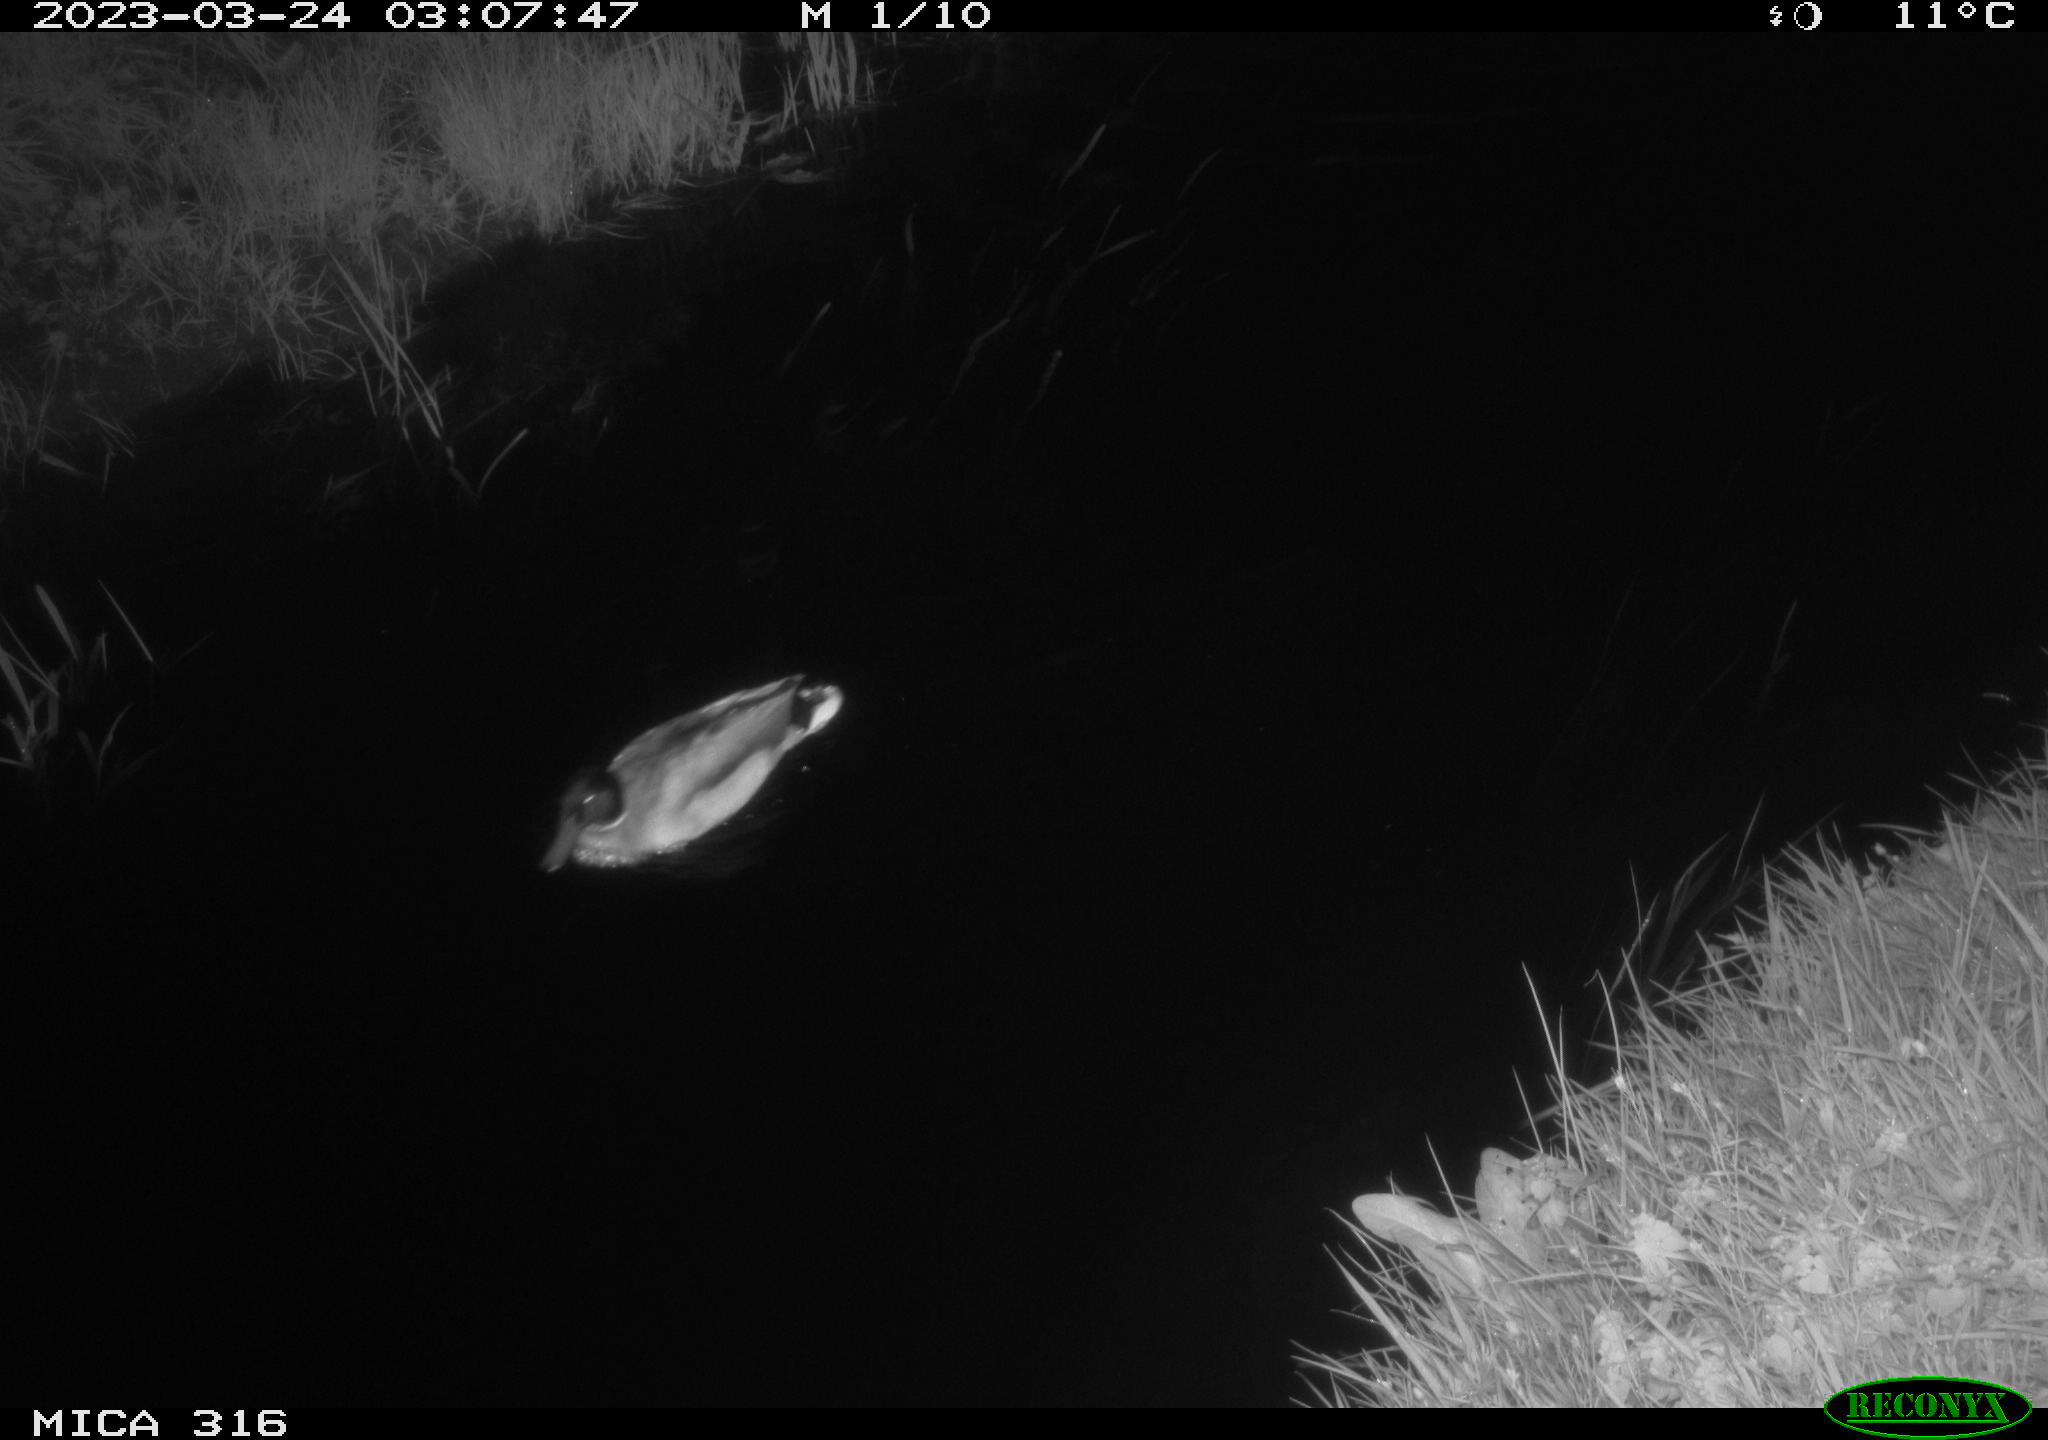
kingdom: Animalia
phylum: Chordata
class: Aves
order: Anseriformes
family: Anatidae
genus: Anas
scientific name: Anas
